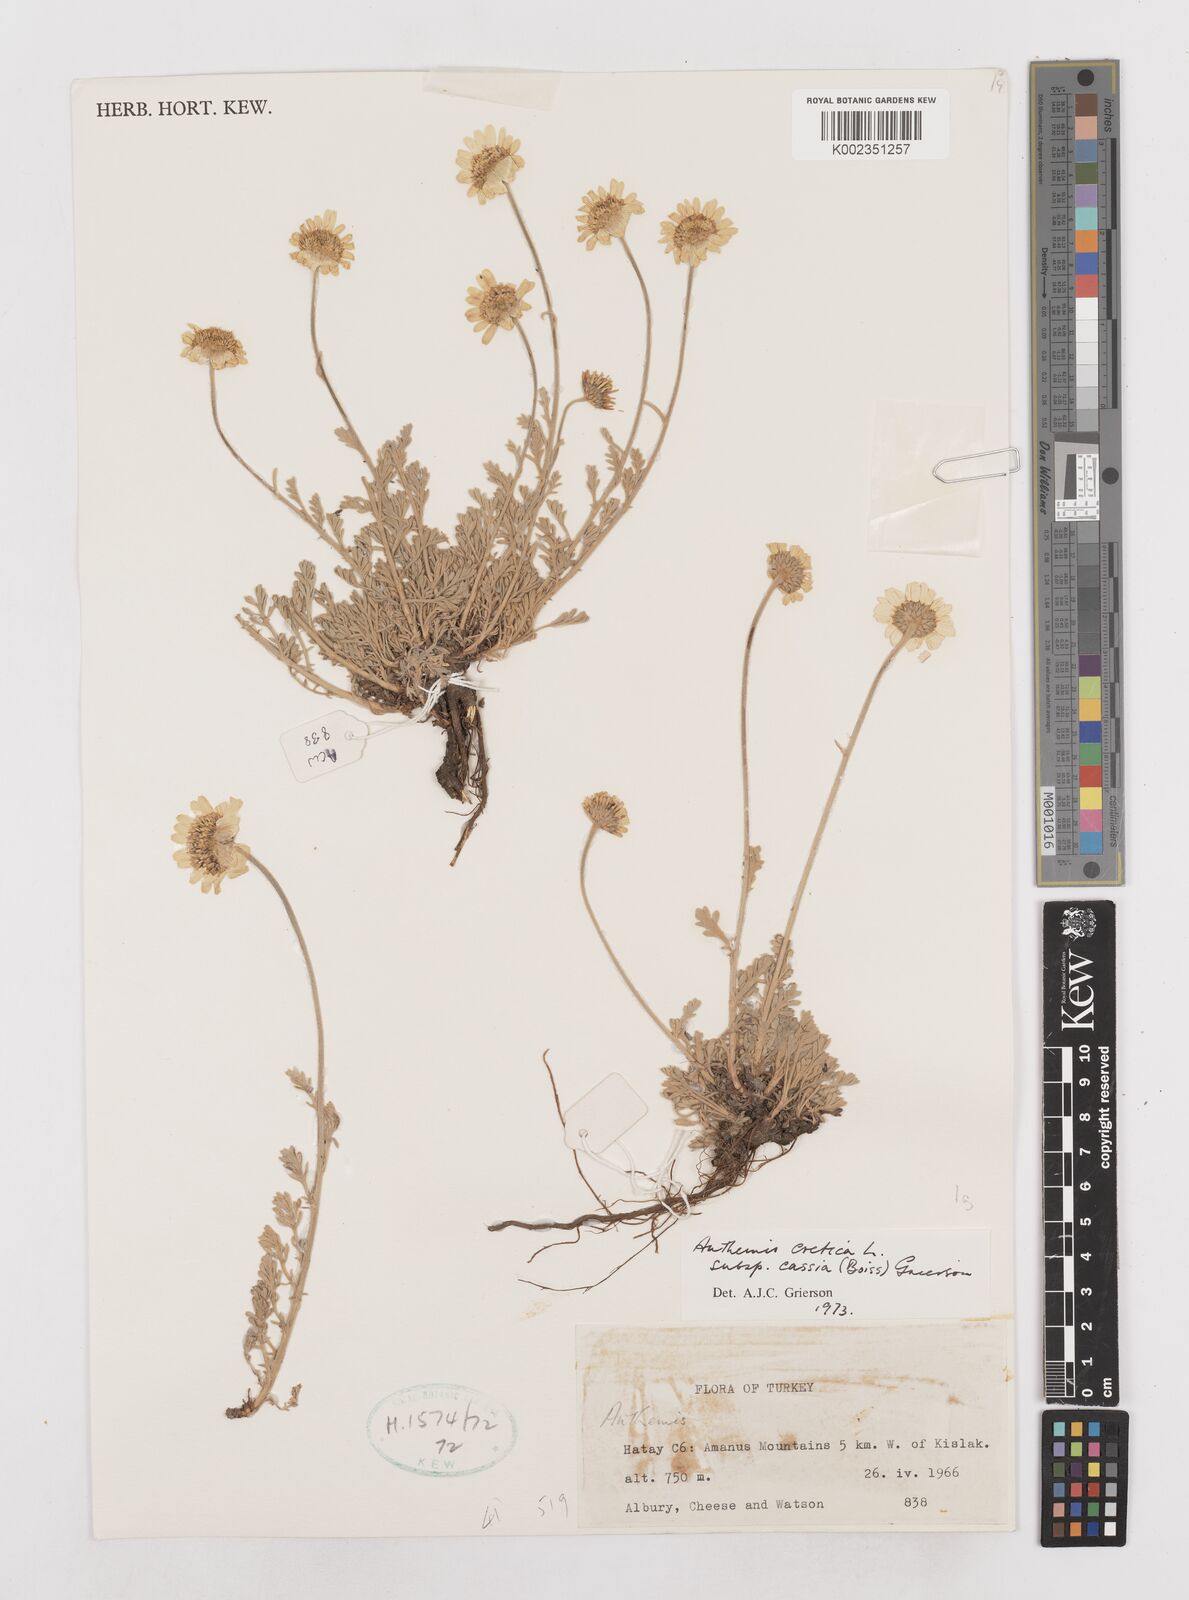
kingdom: Plantae
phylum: Tracheophyta
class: Magnoliopsida
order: Asterales
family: Asteraceae
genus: Anthemis
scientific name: Anthemis cretica
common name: Mountain dog-daisy
